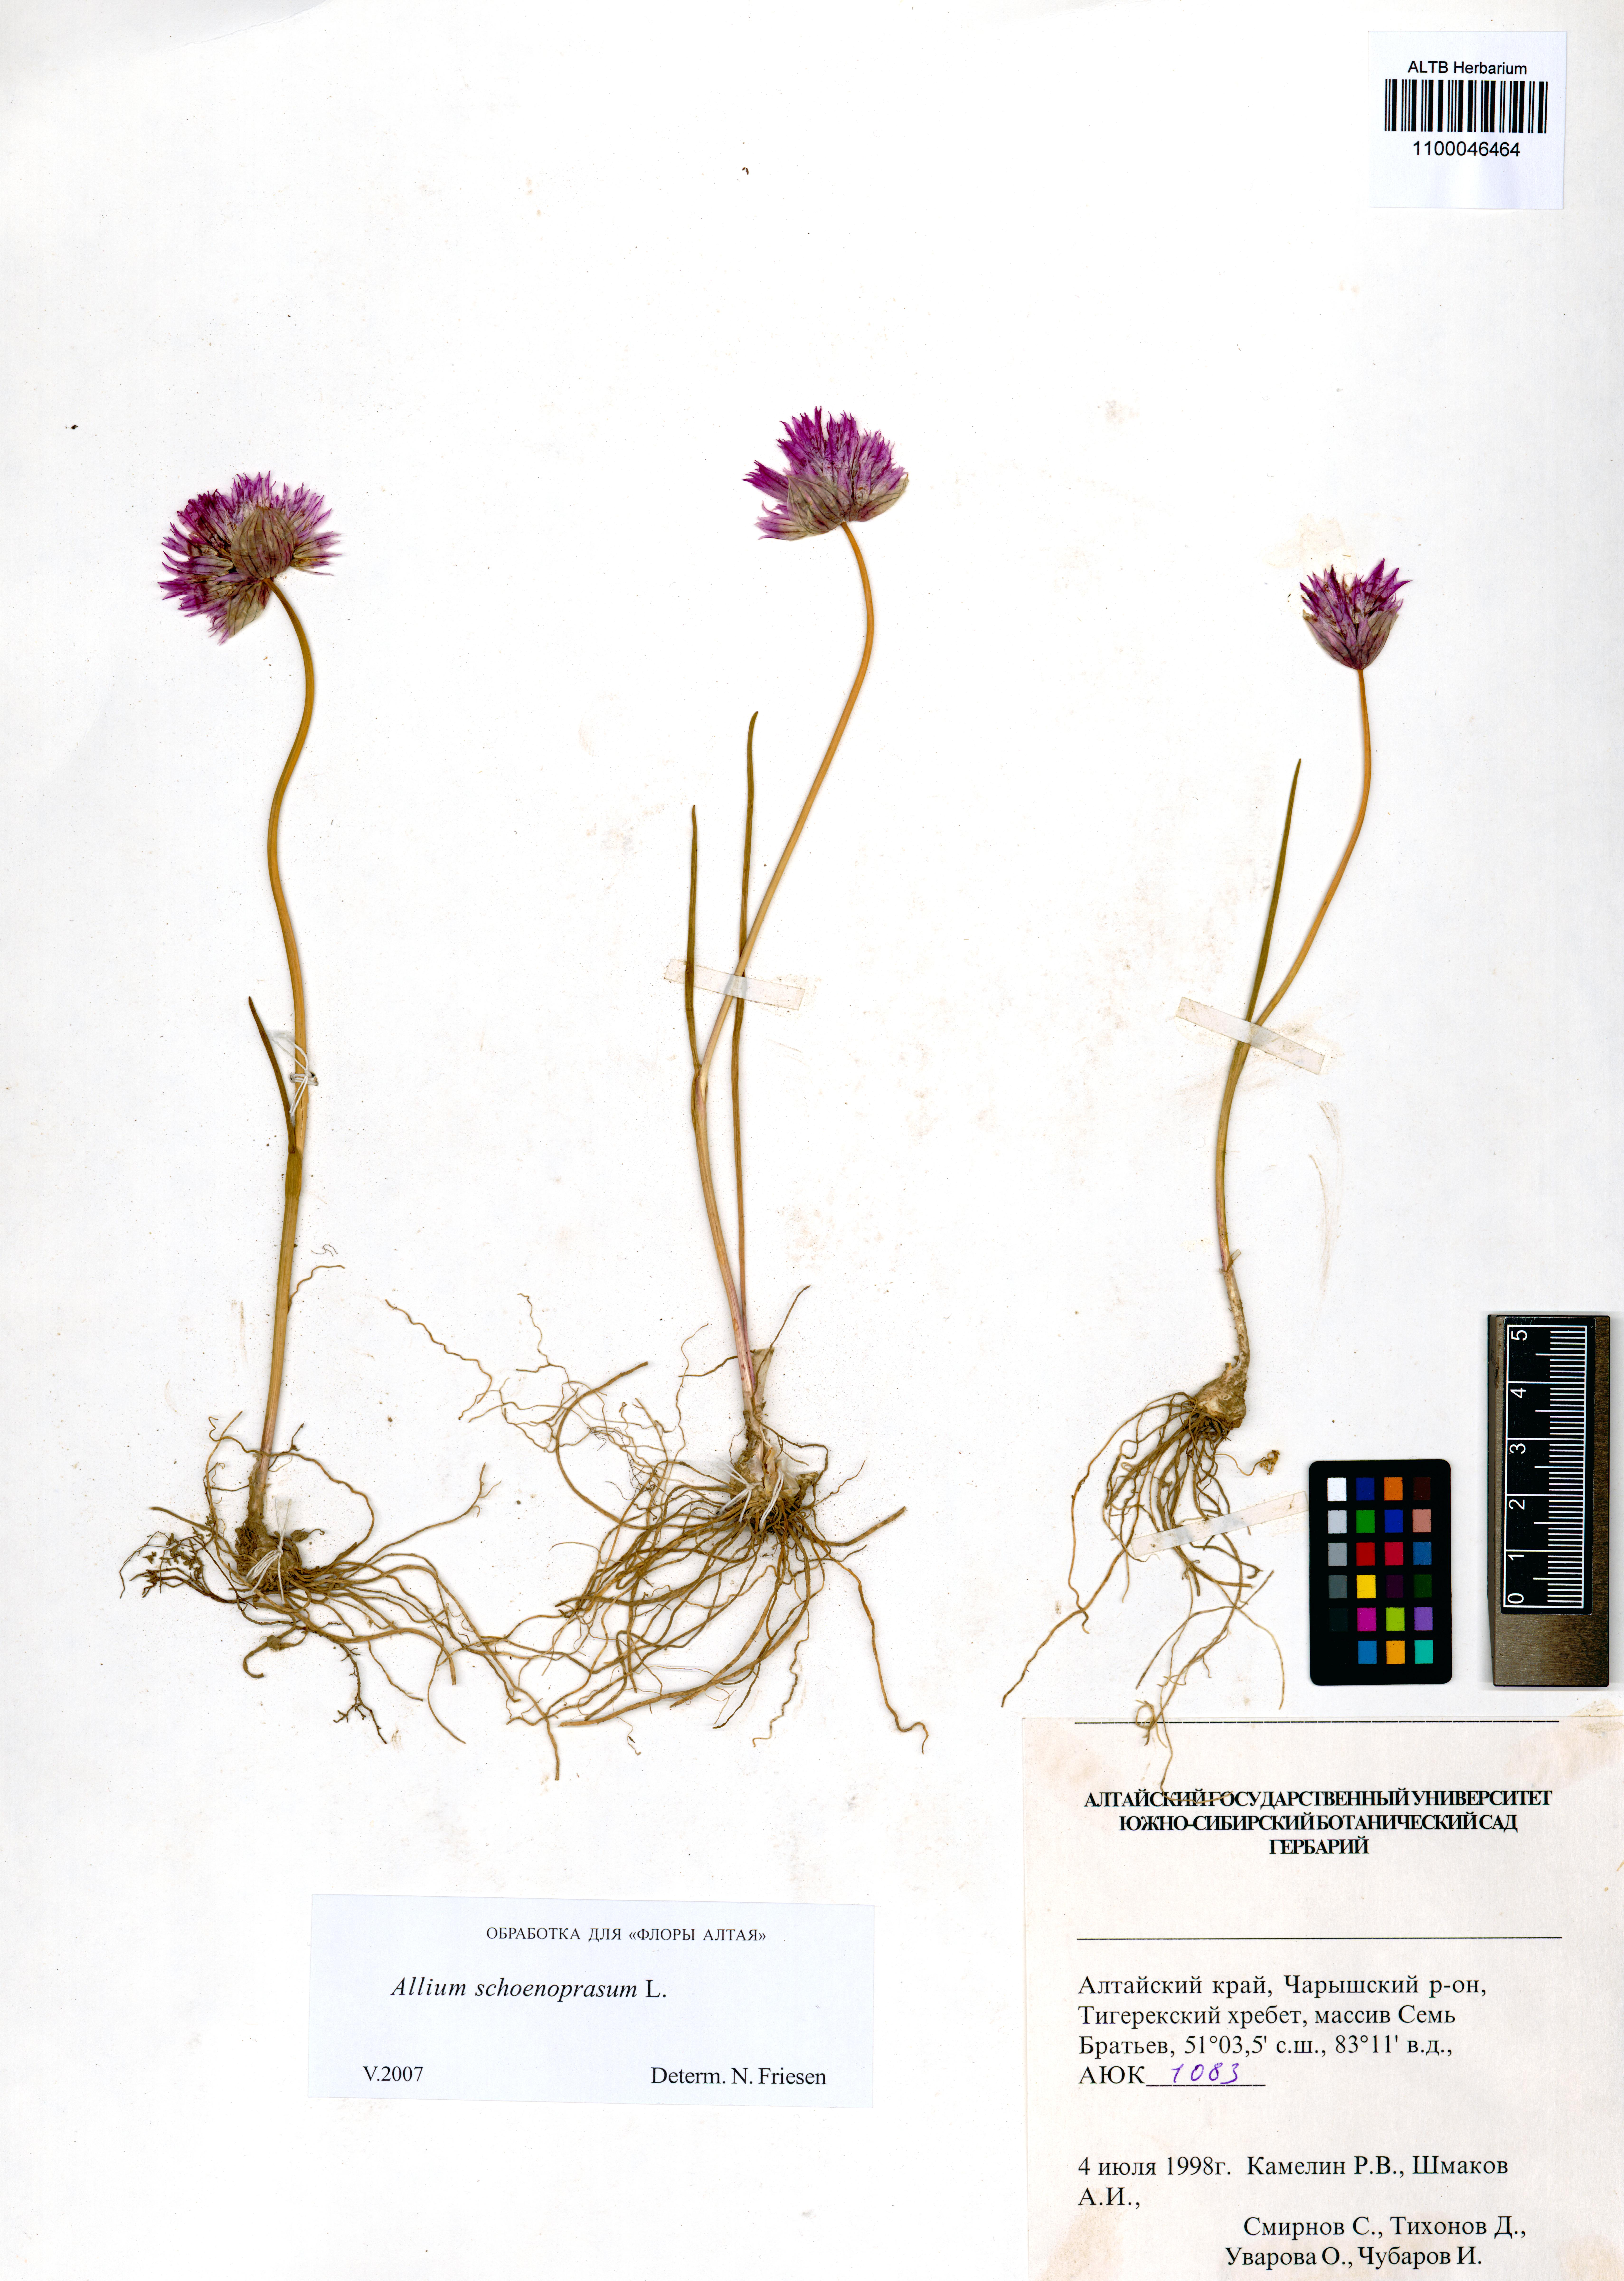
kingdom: Plantae
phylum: Tracheophyta
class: Liliopsida
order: Asparagales
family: Amaryllidaceae
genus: Allium
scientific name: Allium schoenoprasum
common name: Chives
